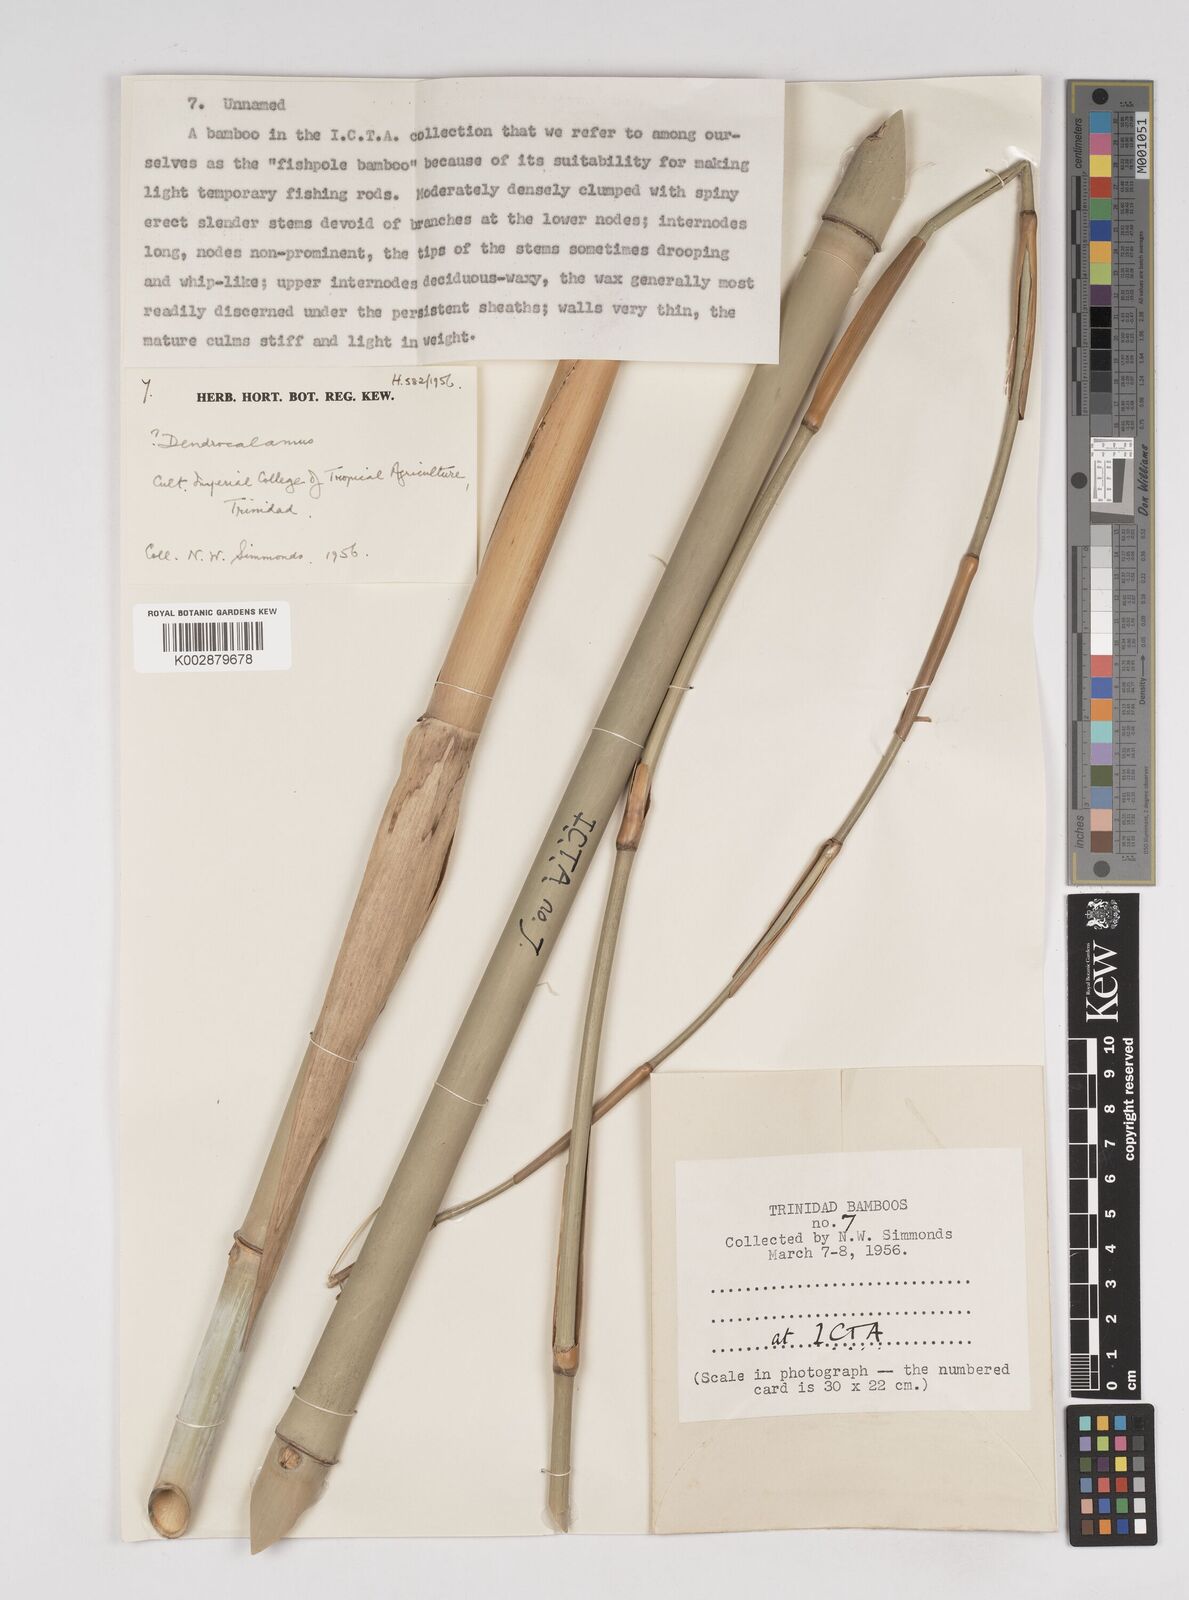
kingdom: Plantae
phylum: Tracheophyta
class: Liliopsida
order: Poales
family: Poaceae
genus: Dendrocalamus
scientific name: Dendrocalamus
